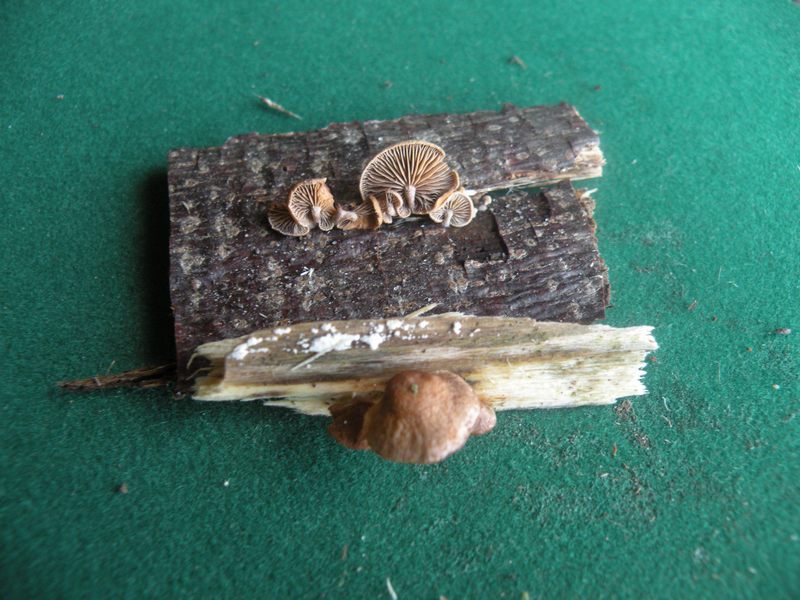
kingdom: Fungi
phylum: Basidiomycota
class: Agaricomycetes
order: Agaricales
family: Strophariaceae
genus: Deconica
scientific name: Deconica horizontalis
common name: ved-stråhat
